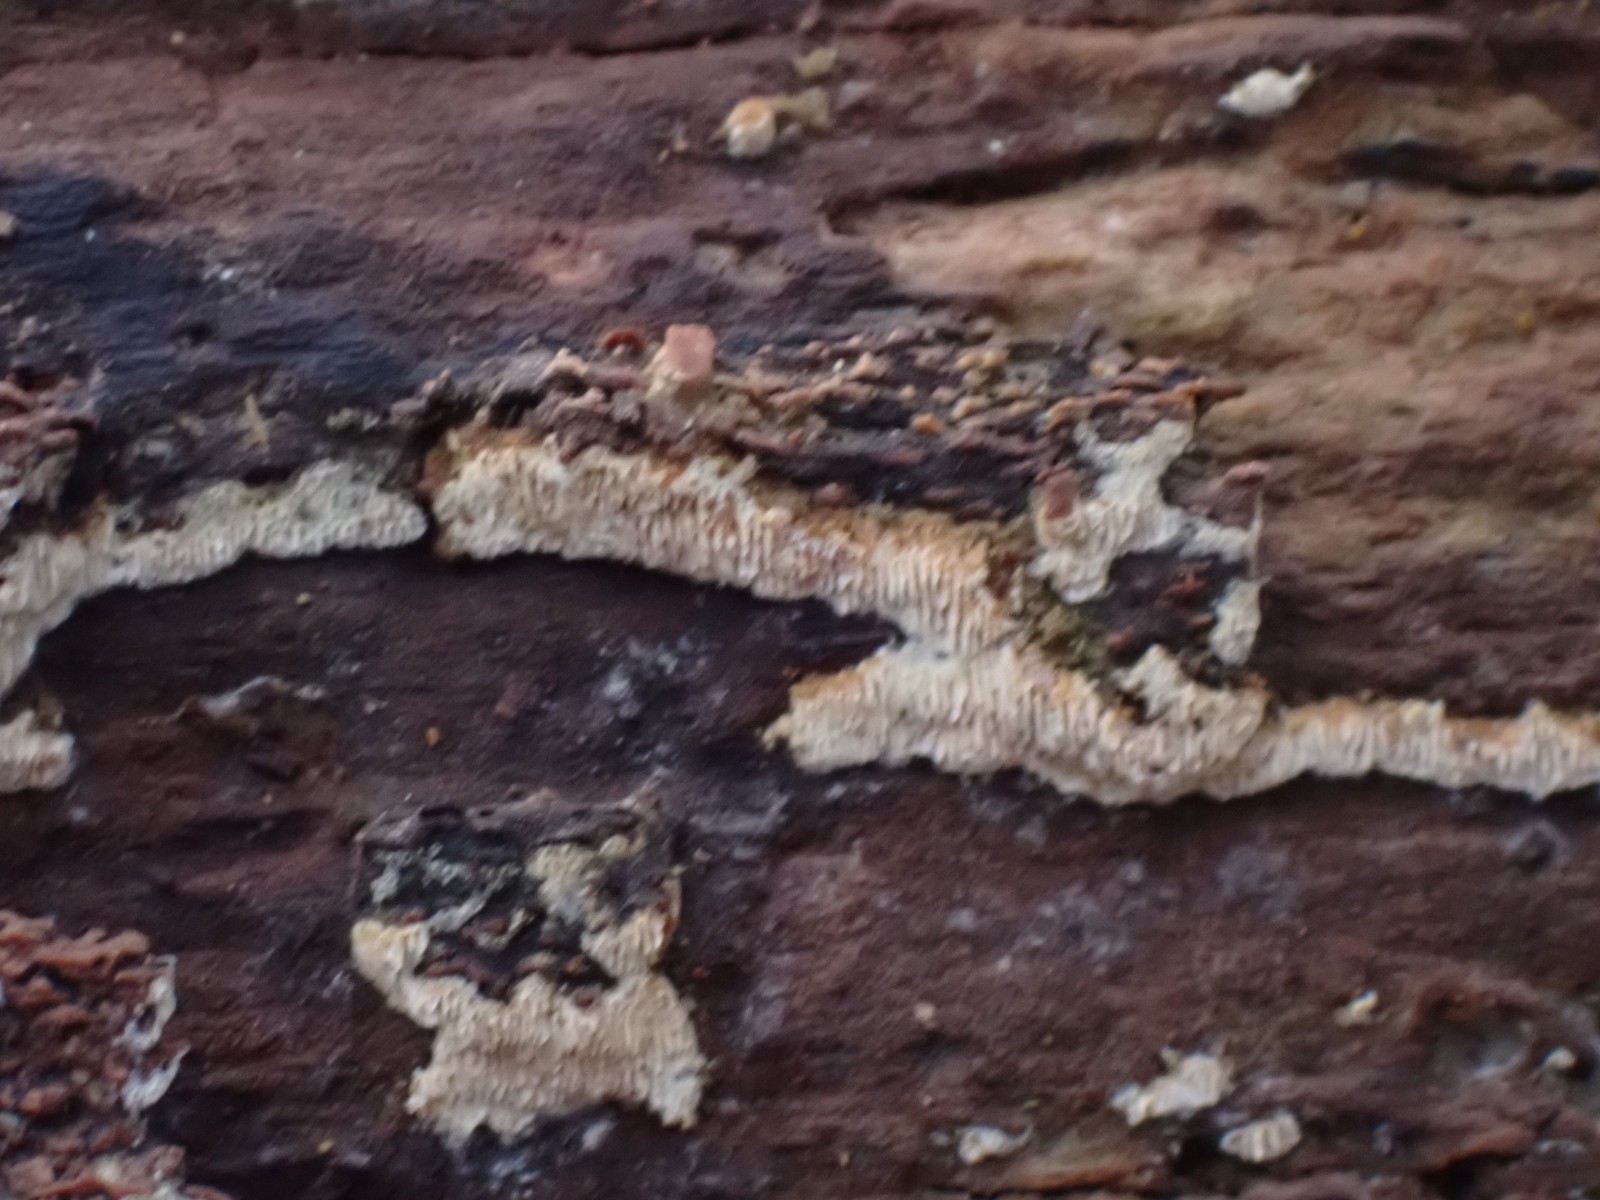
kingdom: Fungi
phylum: Basidiomycota
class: Agaricomycetes
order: Polyporales
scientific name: Polyporales
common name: poresvampordenen
